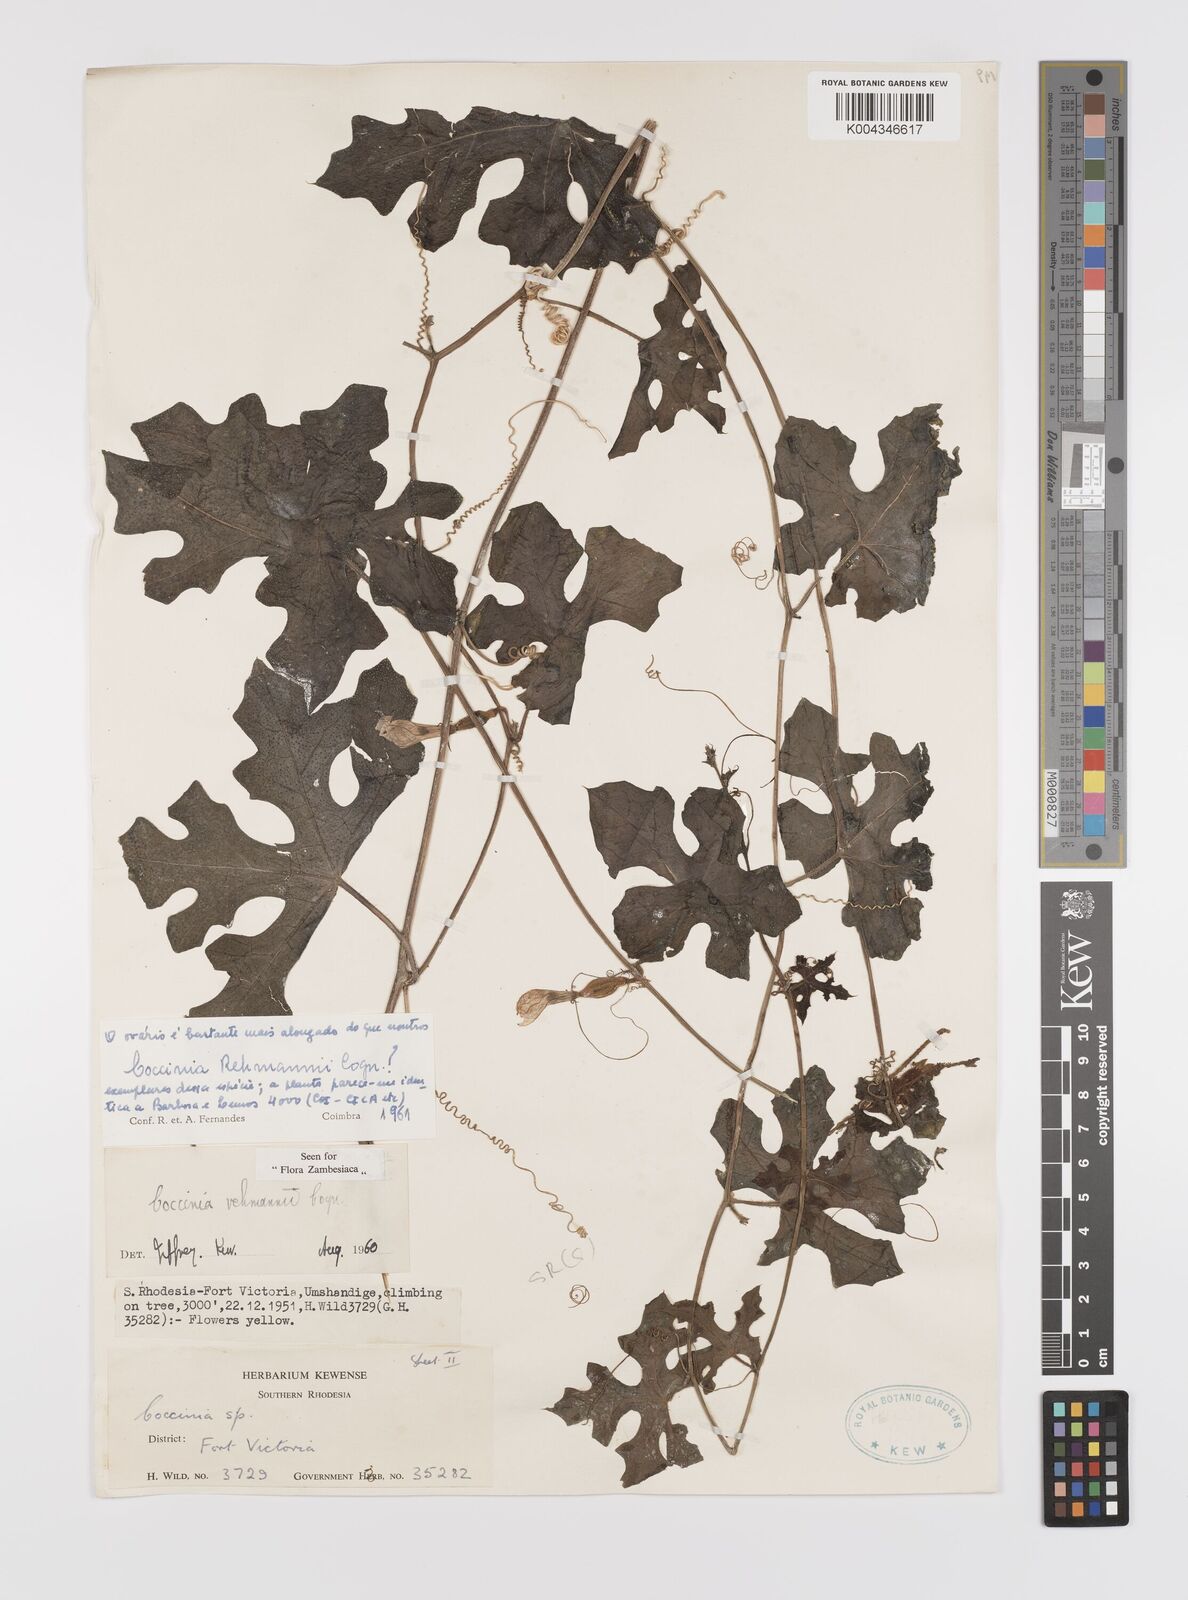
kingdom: Plantae
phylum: Tracheophyta
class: Magnoliopsida
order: Cucurbitales
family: Cucurbitaceae
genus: Coccinia
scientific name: Coccinia rehmannii
